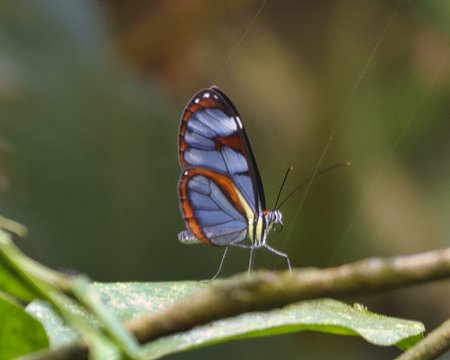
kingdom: Animalia
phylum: Arthropoda
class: Insecta
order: Lepidoptera
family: Nymphalidae
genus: Ithomia
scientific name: Ithomia diasia
